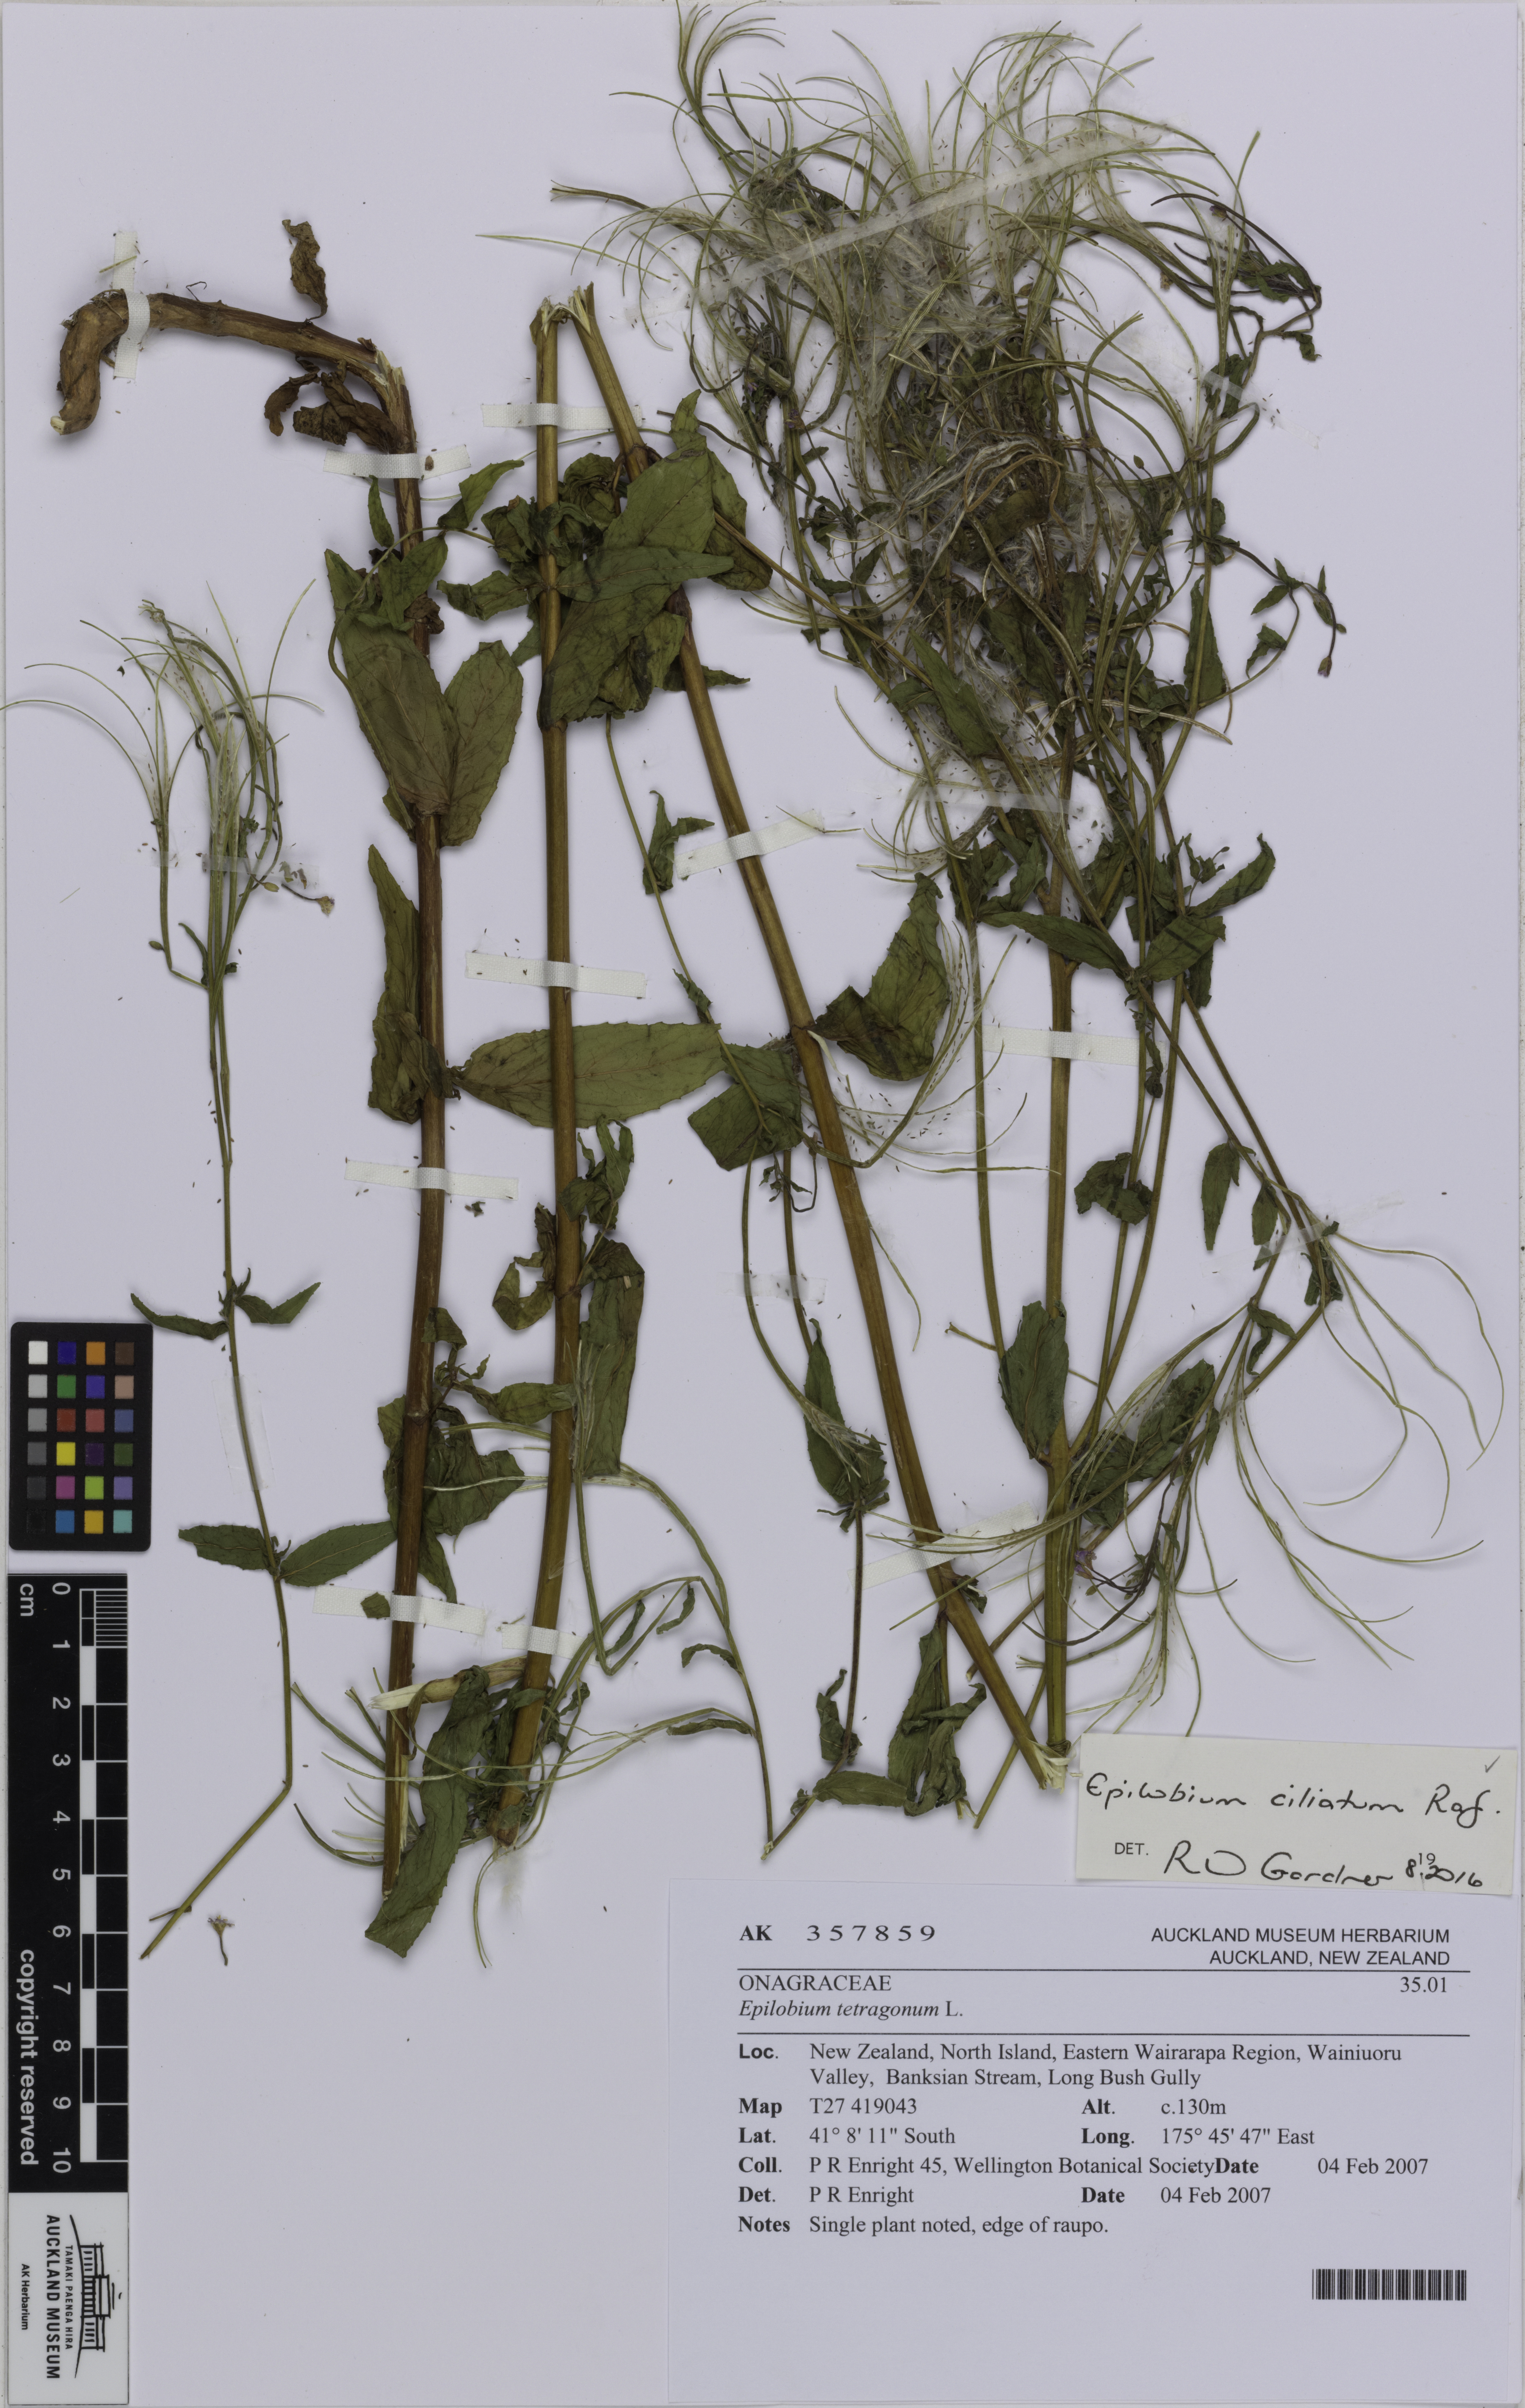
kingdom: Plantae
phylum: Tracheophyta
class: Magnoliopsida
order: Myrtales
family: Onagraceae
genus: Epilobium
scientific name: Epilobium ciliatum
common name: American willowherb
